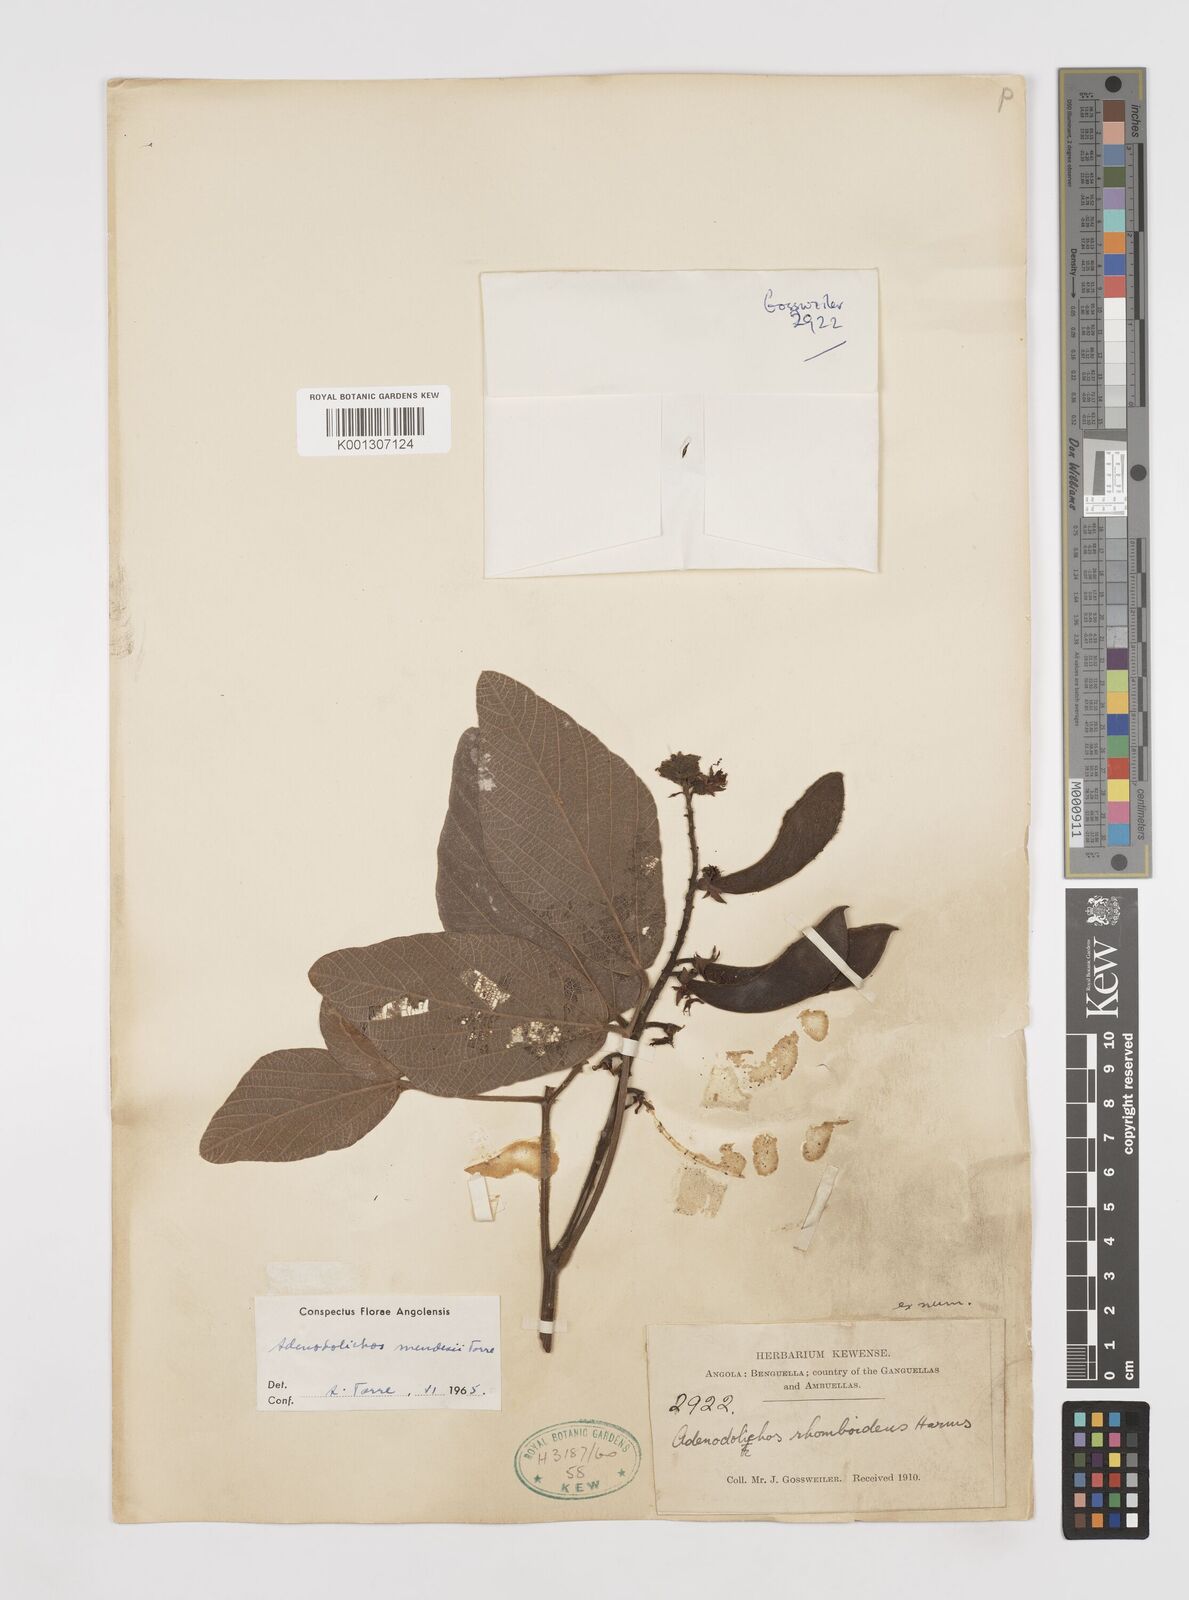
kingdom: Plantae
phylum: Tracheophyta
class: Magnoliopsida
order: Fabales
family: Fabaceae
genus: Adenodolichos
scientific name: Adenodolichos mendesii
